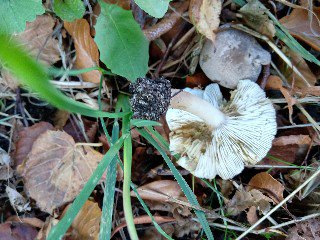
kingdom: Fungi
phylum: Basidiomycota
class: Agaricomycetes
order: Agaricales
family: Tricholomataceae
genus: Tricholoma
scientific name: Tricholoma scalpturatum
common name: gulplettet ridderhat
